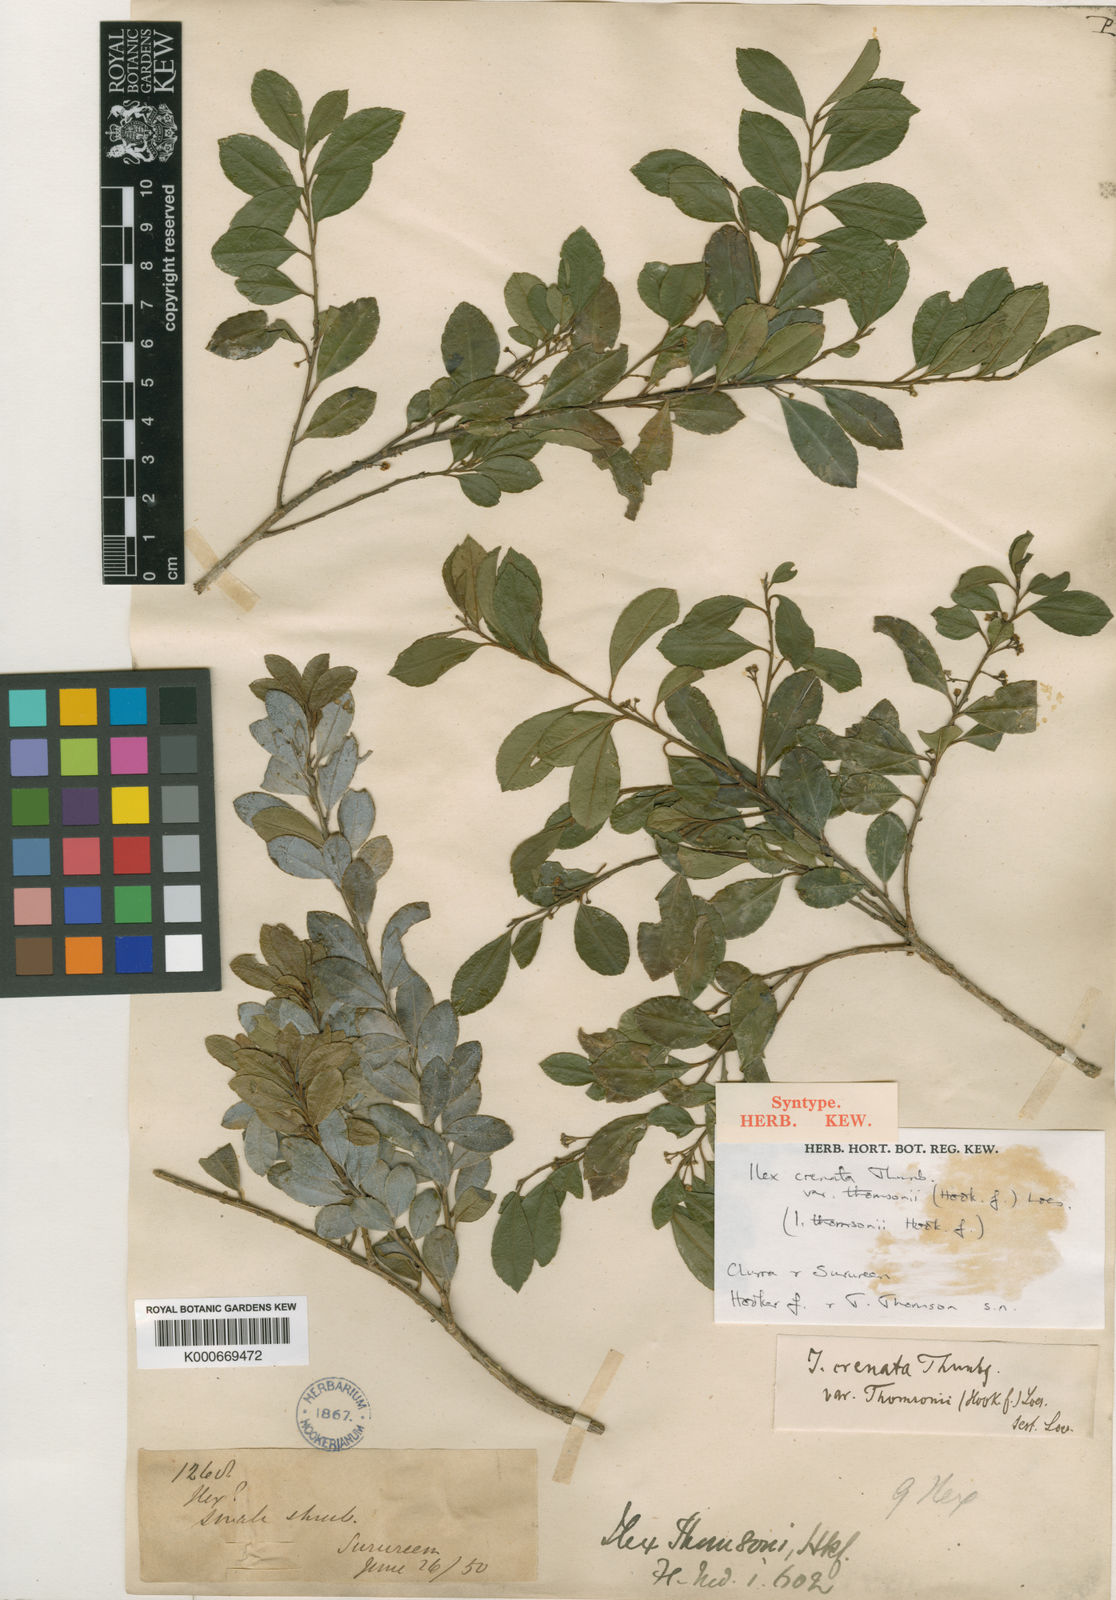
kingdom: Plantae
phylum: Tracheophyta
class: Magnoliopsida
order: Aquifoliales
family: Aquifoliaceae
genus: Ilex
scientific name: Ilex crenata
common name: Japanese holly
